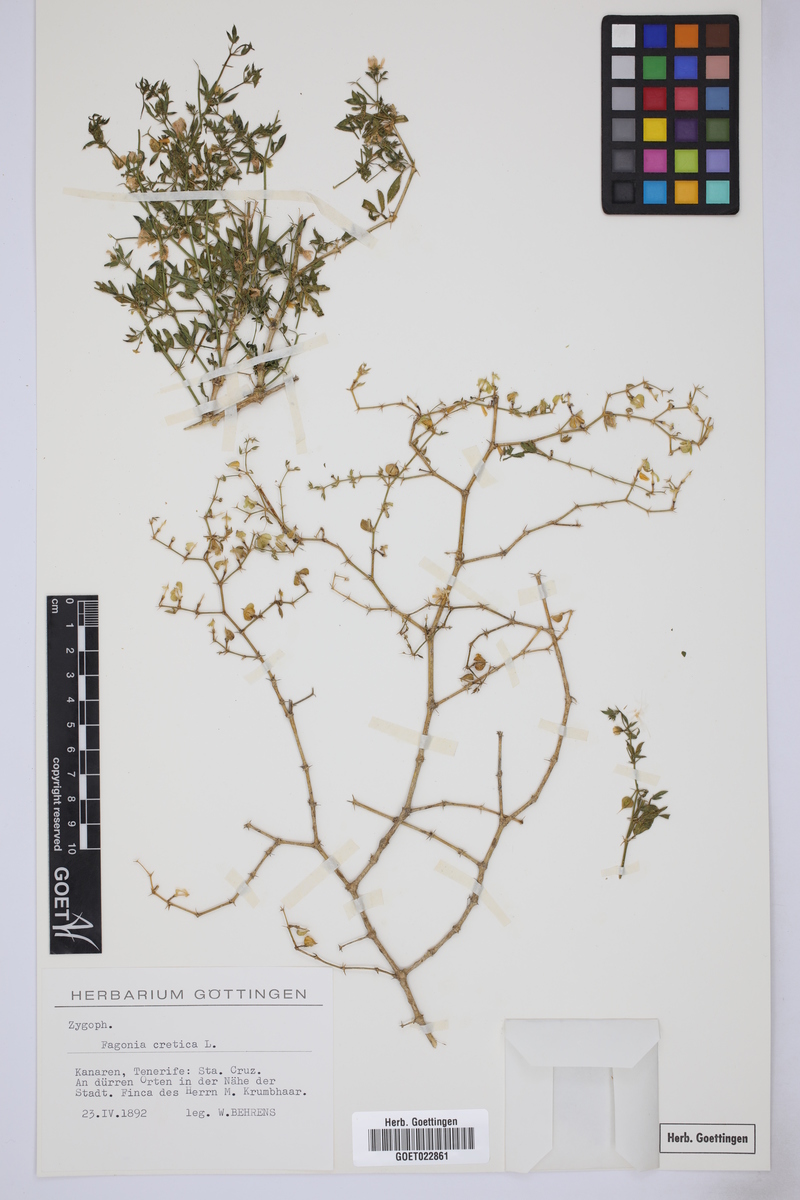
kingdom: Plantae
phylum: Tracheophyta
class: Magnoliopsida
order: Zygophyllales
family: Zygophyllaceae
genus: Fagonia
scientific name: Fagonia cretica
